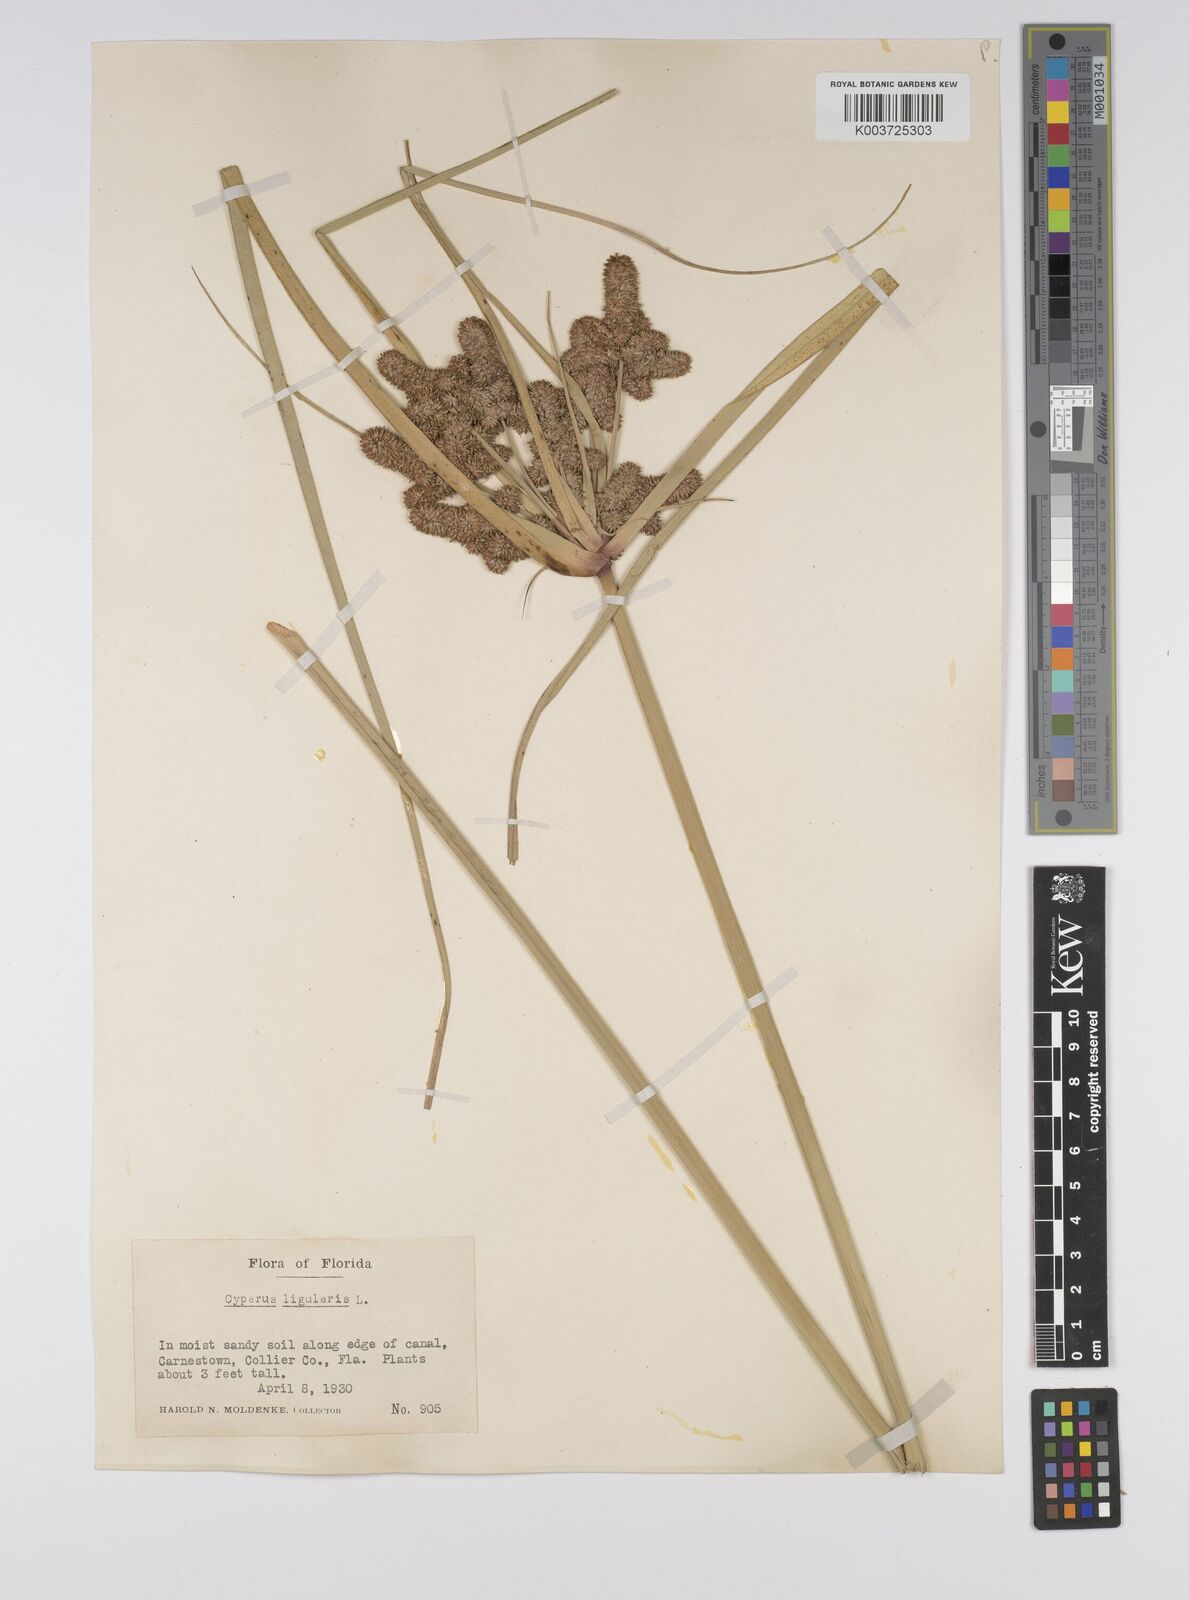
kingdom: Plantae
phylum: Tracheophyta
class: Liliopsida
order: Poales
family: Cyperaceae
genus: Cyperus
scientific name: Cyperus ligularis
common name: Swamp flat sedge
